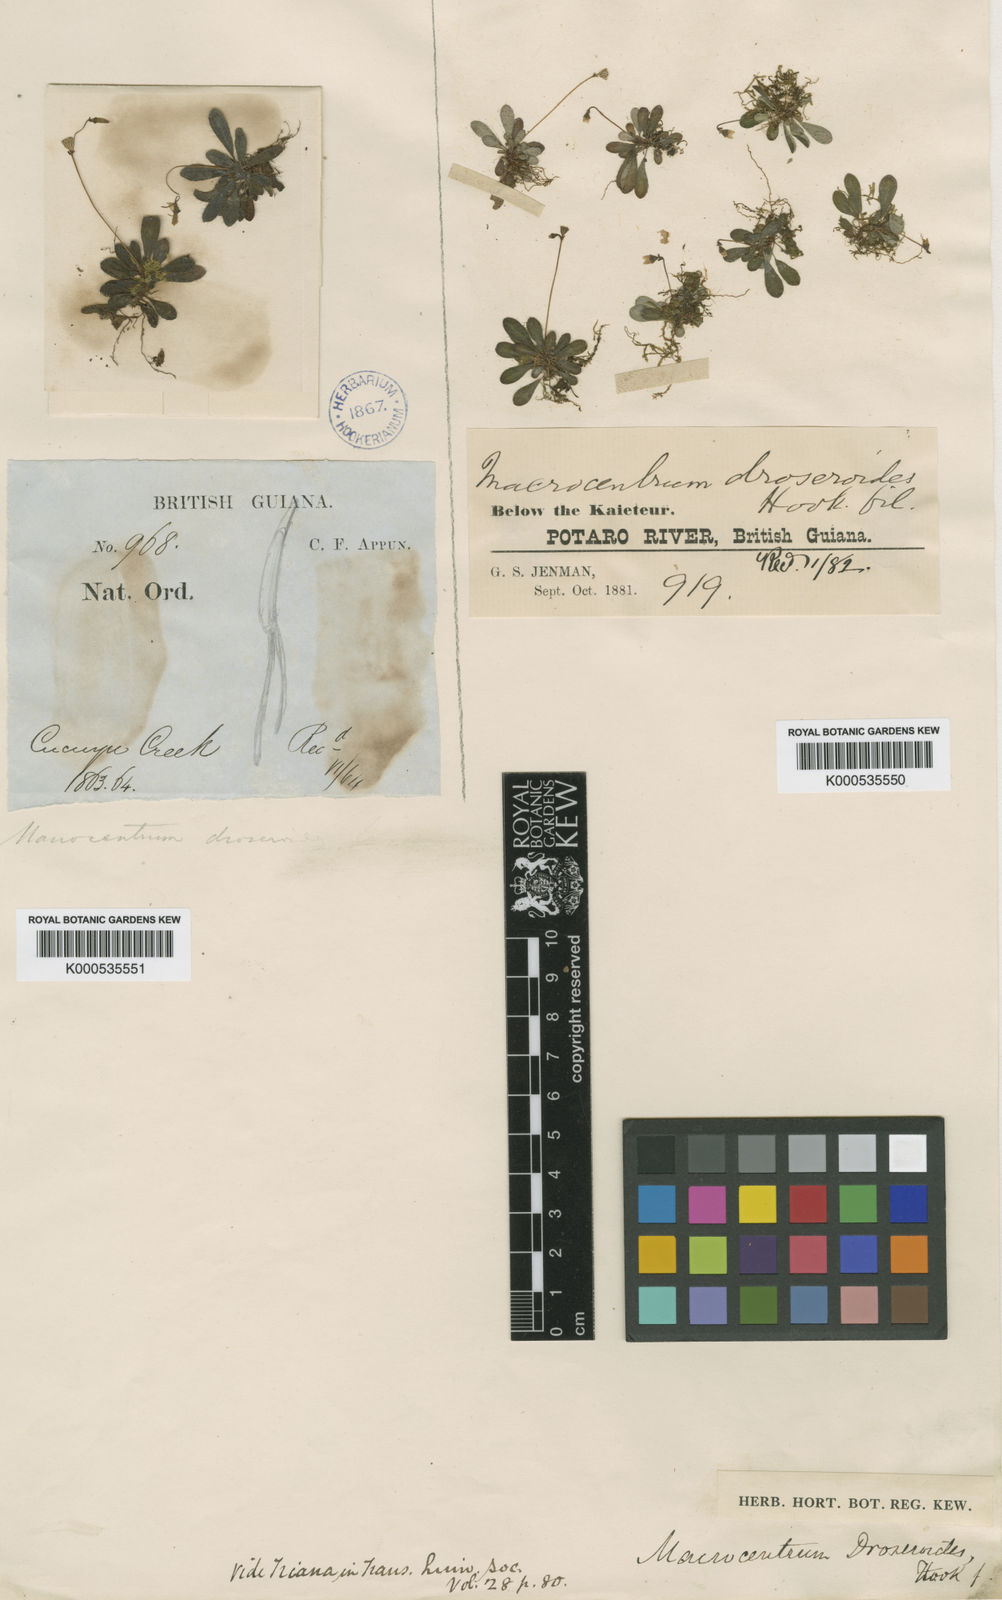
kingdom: Plantae
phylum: Tracheophyta
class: Magnoliopsida
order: Myrtales
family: Melastomataceae
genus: Macrocentrum
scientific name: Macrocentrum droseroides
